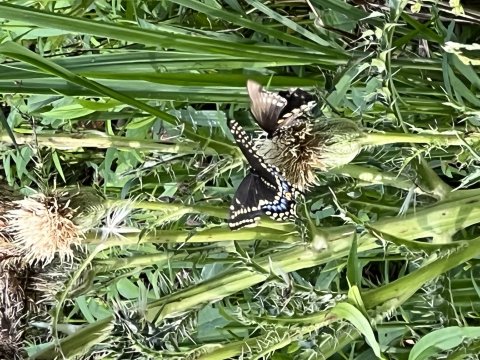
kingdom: Animalia
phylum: Arthropoda
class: Insecta
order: Lepidoptera
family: Papilionidae
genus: Papilio
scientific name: Papilio polyxenes
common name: Black Swallowtail
